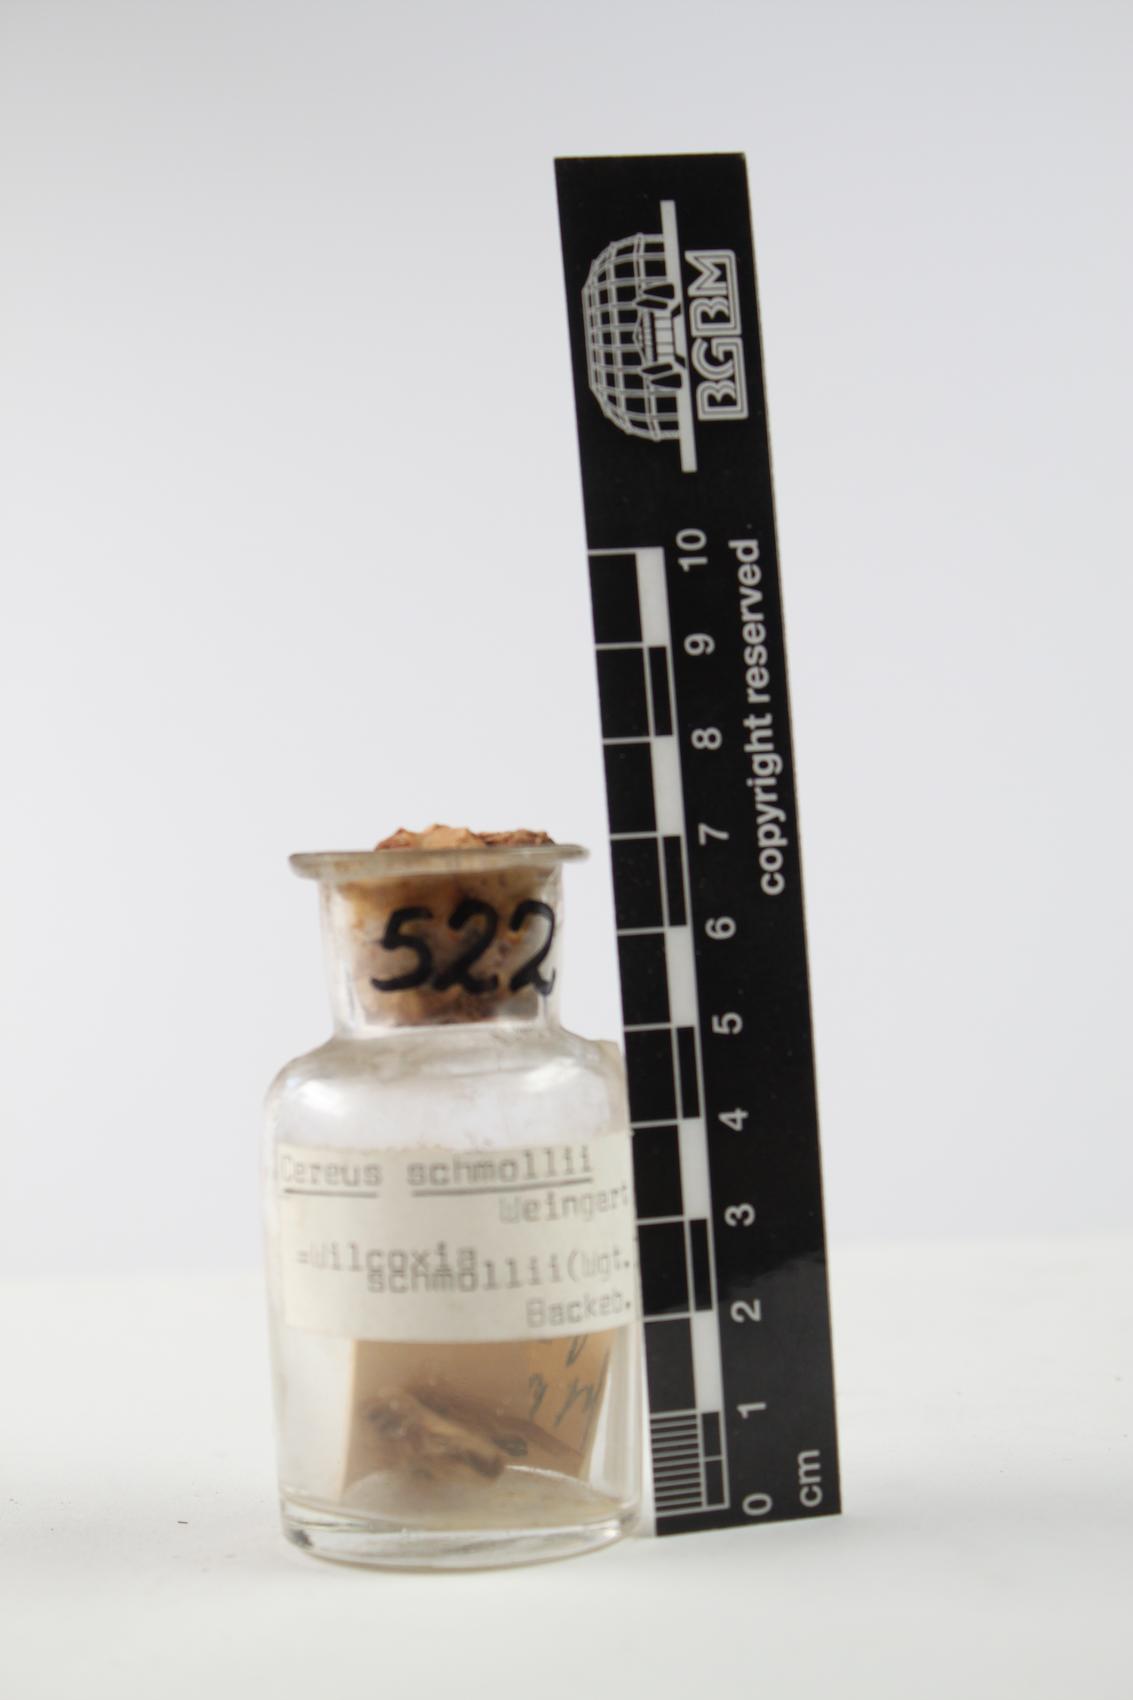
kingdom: Plantae
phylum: Tracheophyta
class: Magnoliopsida
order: Caryophyllales
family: Cactaceae
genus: Echinocereus
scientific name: Echinocereus schmollii
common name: Lamb's tail cactus
